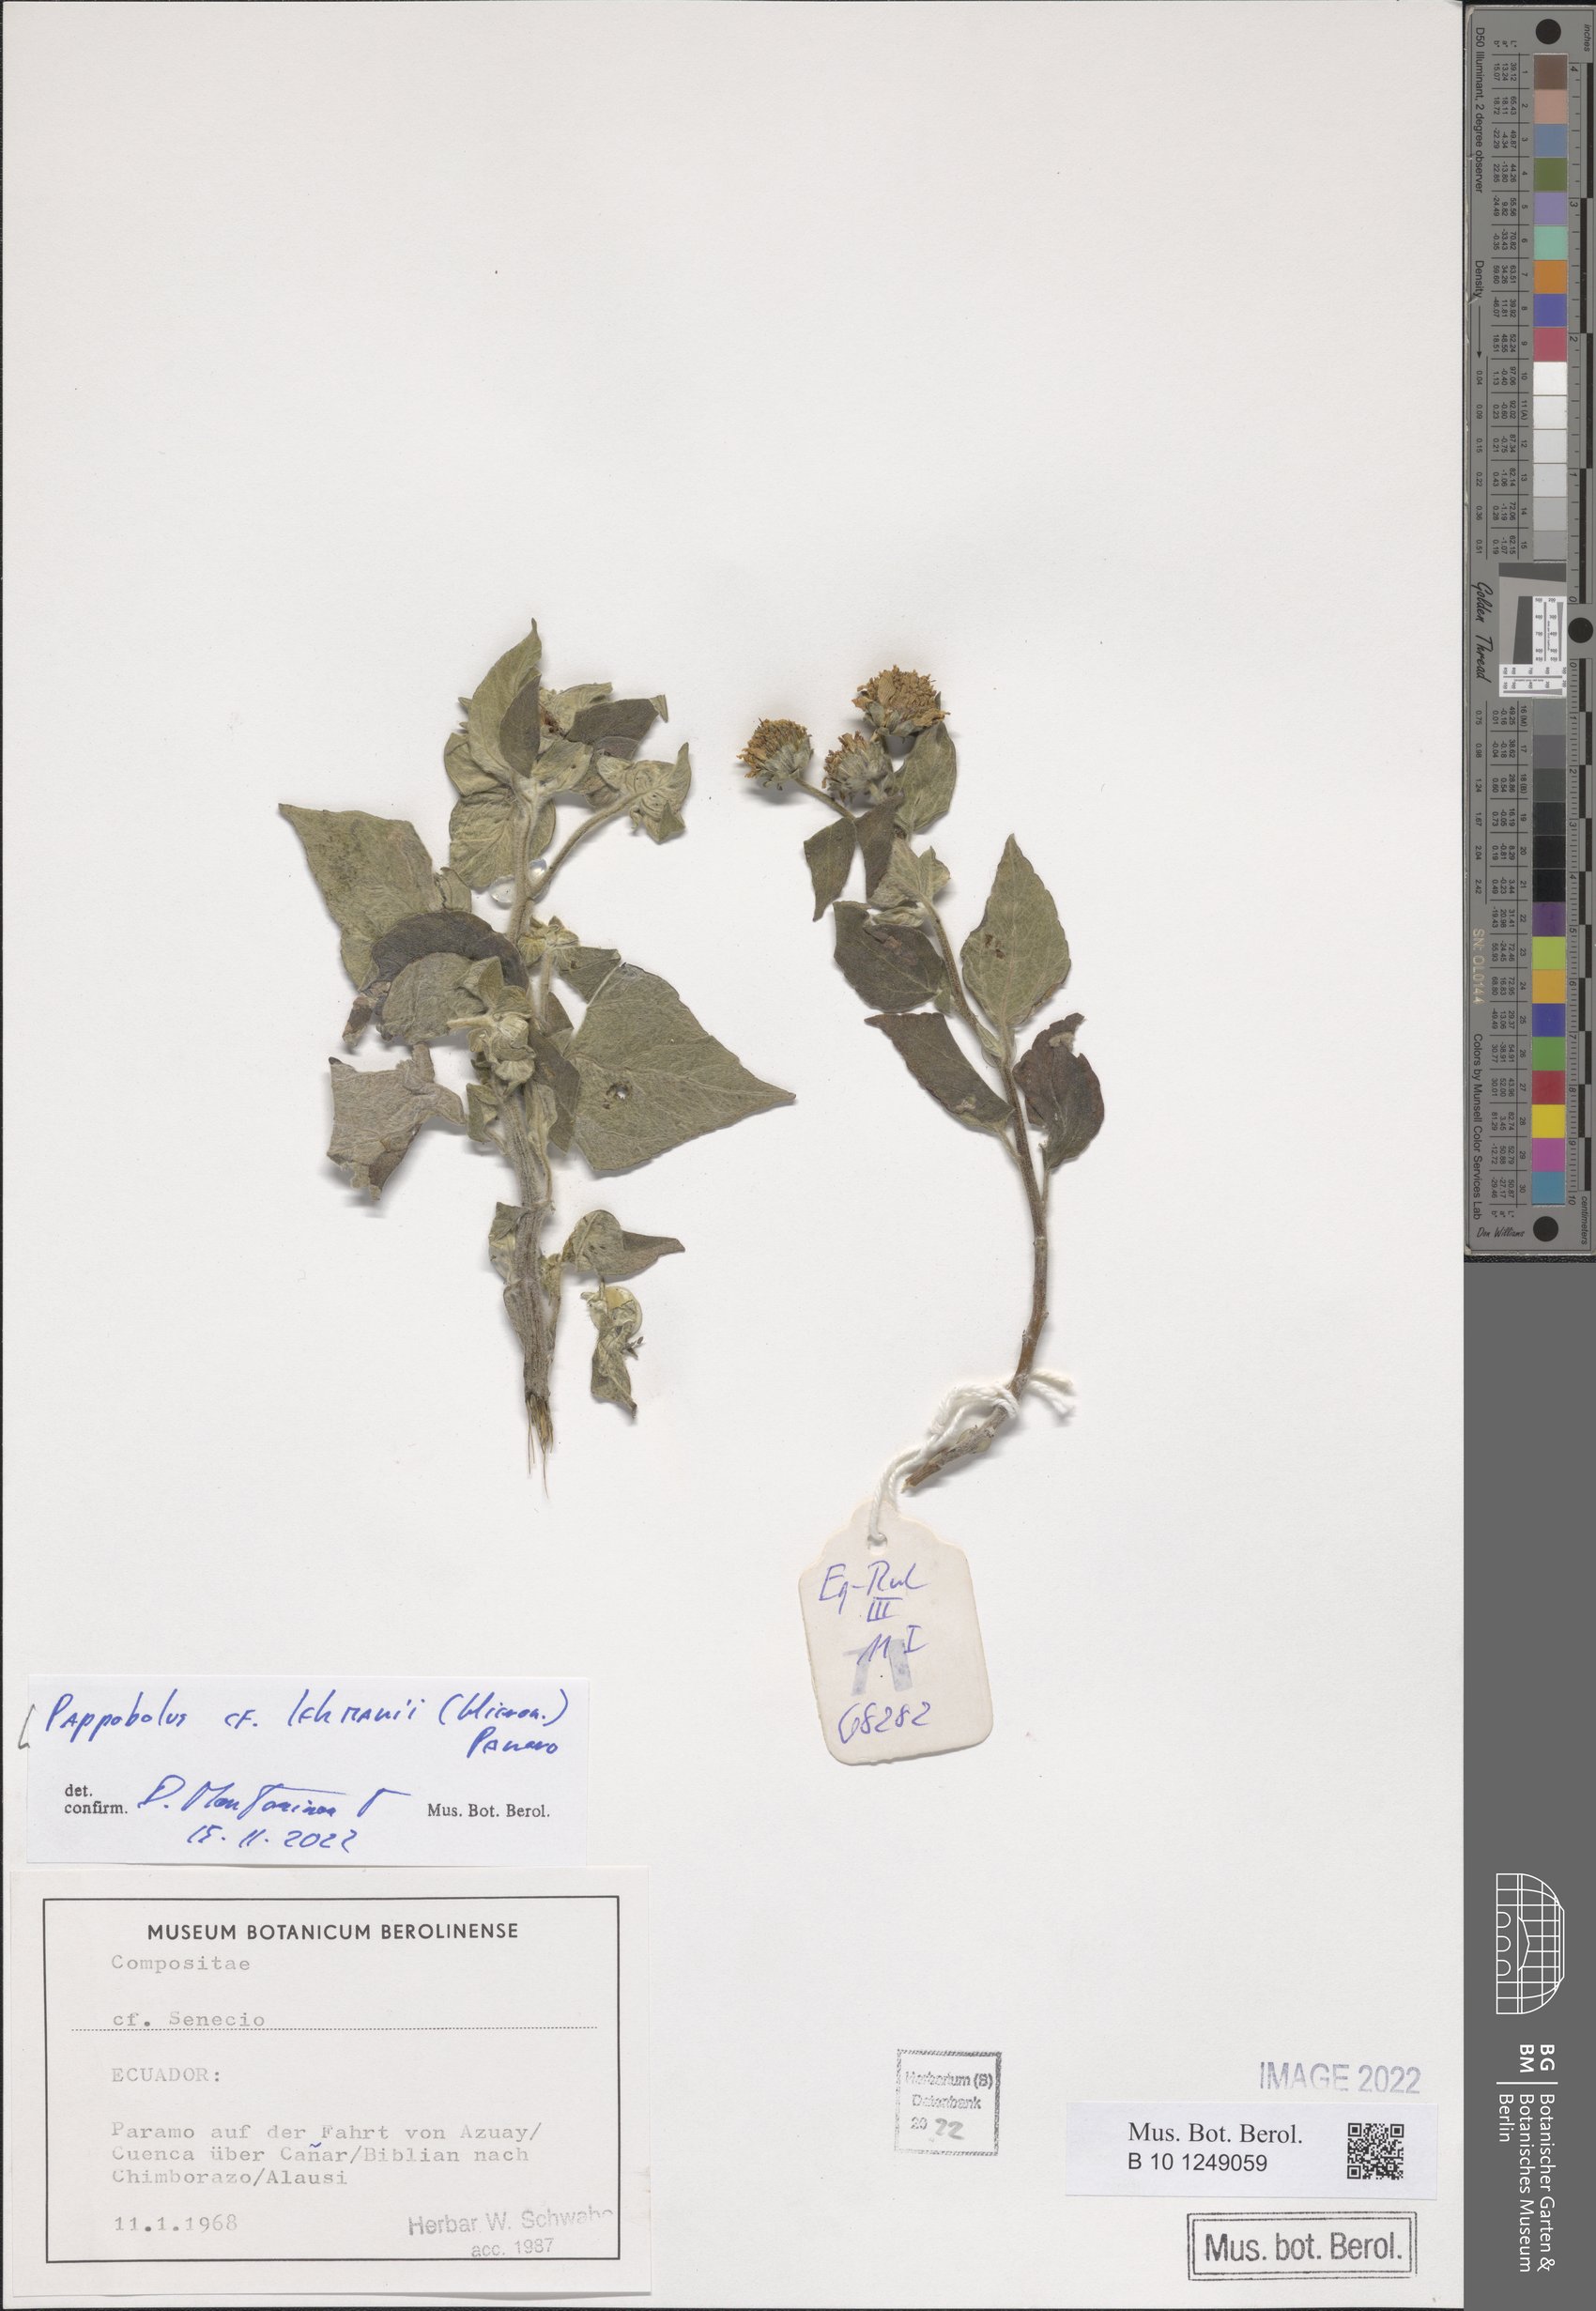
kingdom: Plantae
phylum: Tracheophyta
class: Magnoliopsida
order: Asterales
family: Asteraceae
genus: Pappobolus
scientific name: Pappobolus lehmannii
